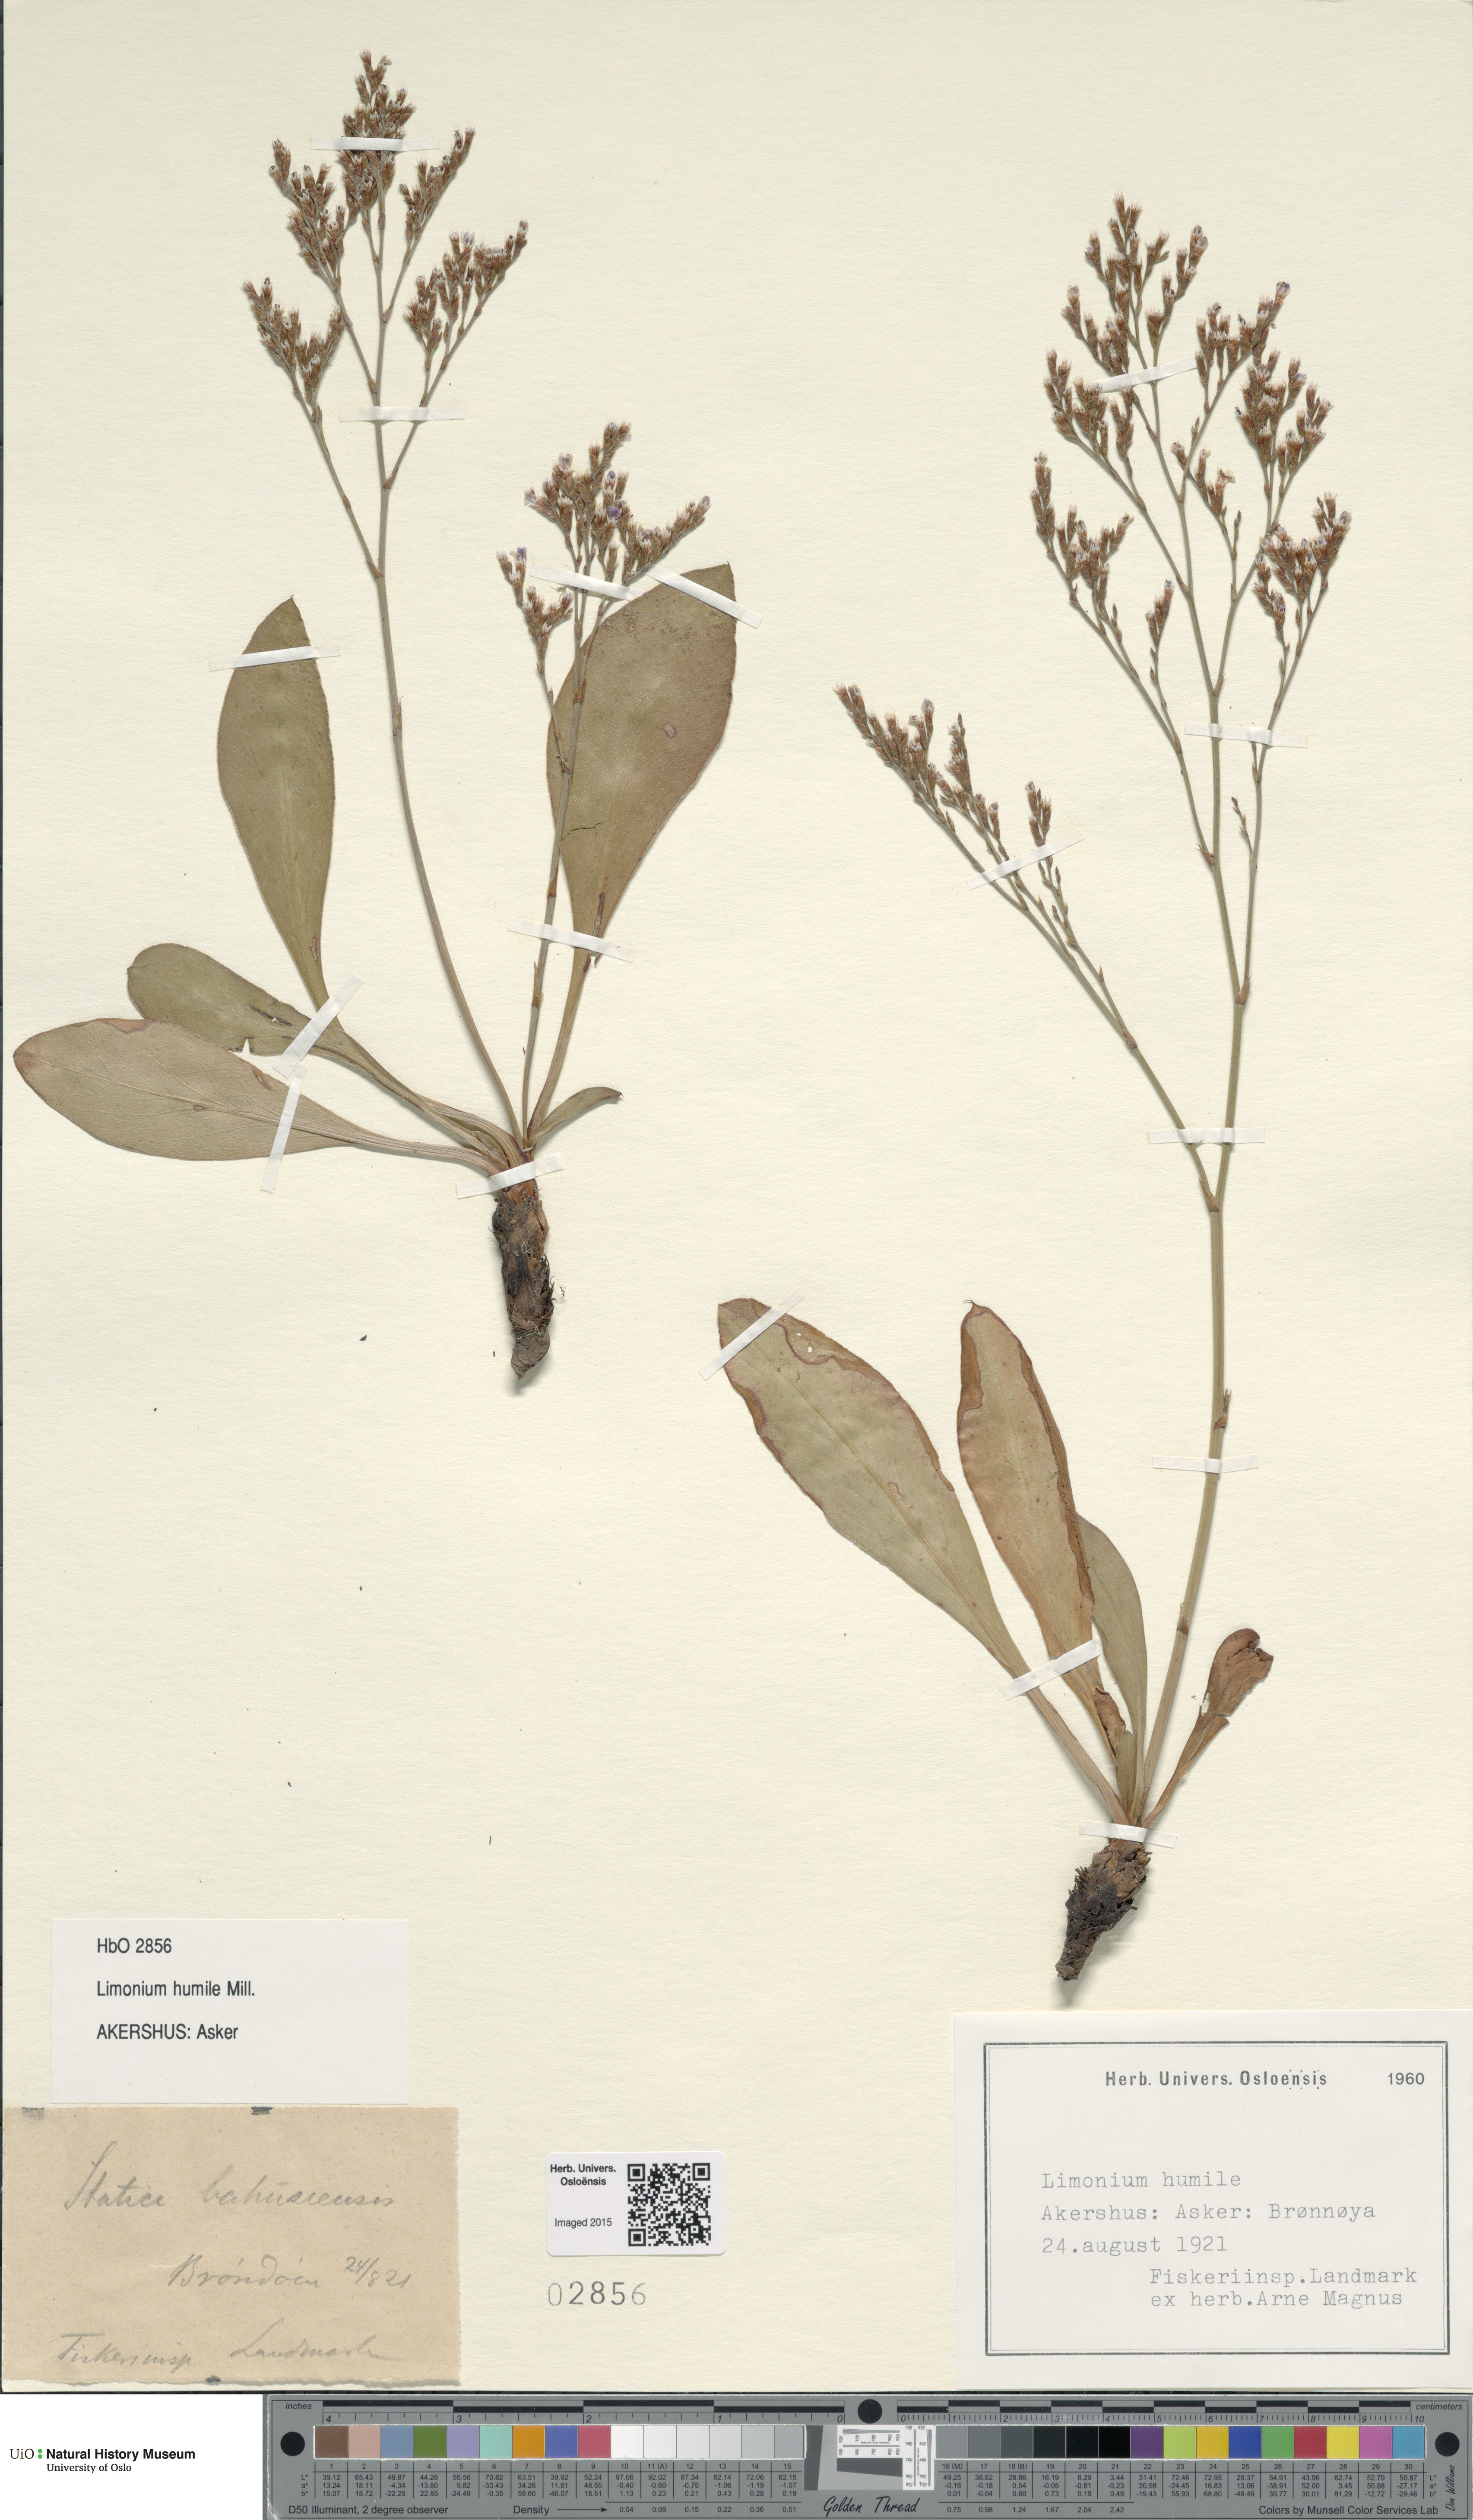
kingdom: Plantae
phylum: Tracheophyta
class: Magnoliopsida
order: Caryophyllales
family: Plumbaginaceae
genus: Limonium
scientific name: Limonium humile
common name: Lax-flowered sea-lavender
